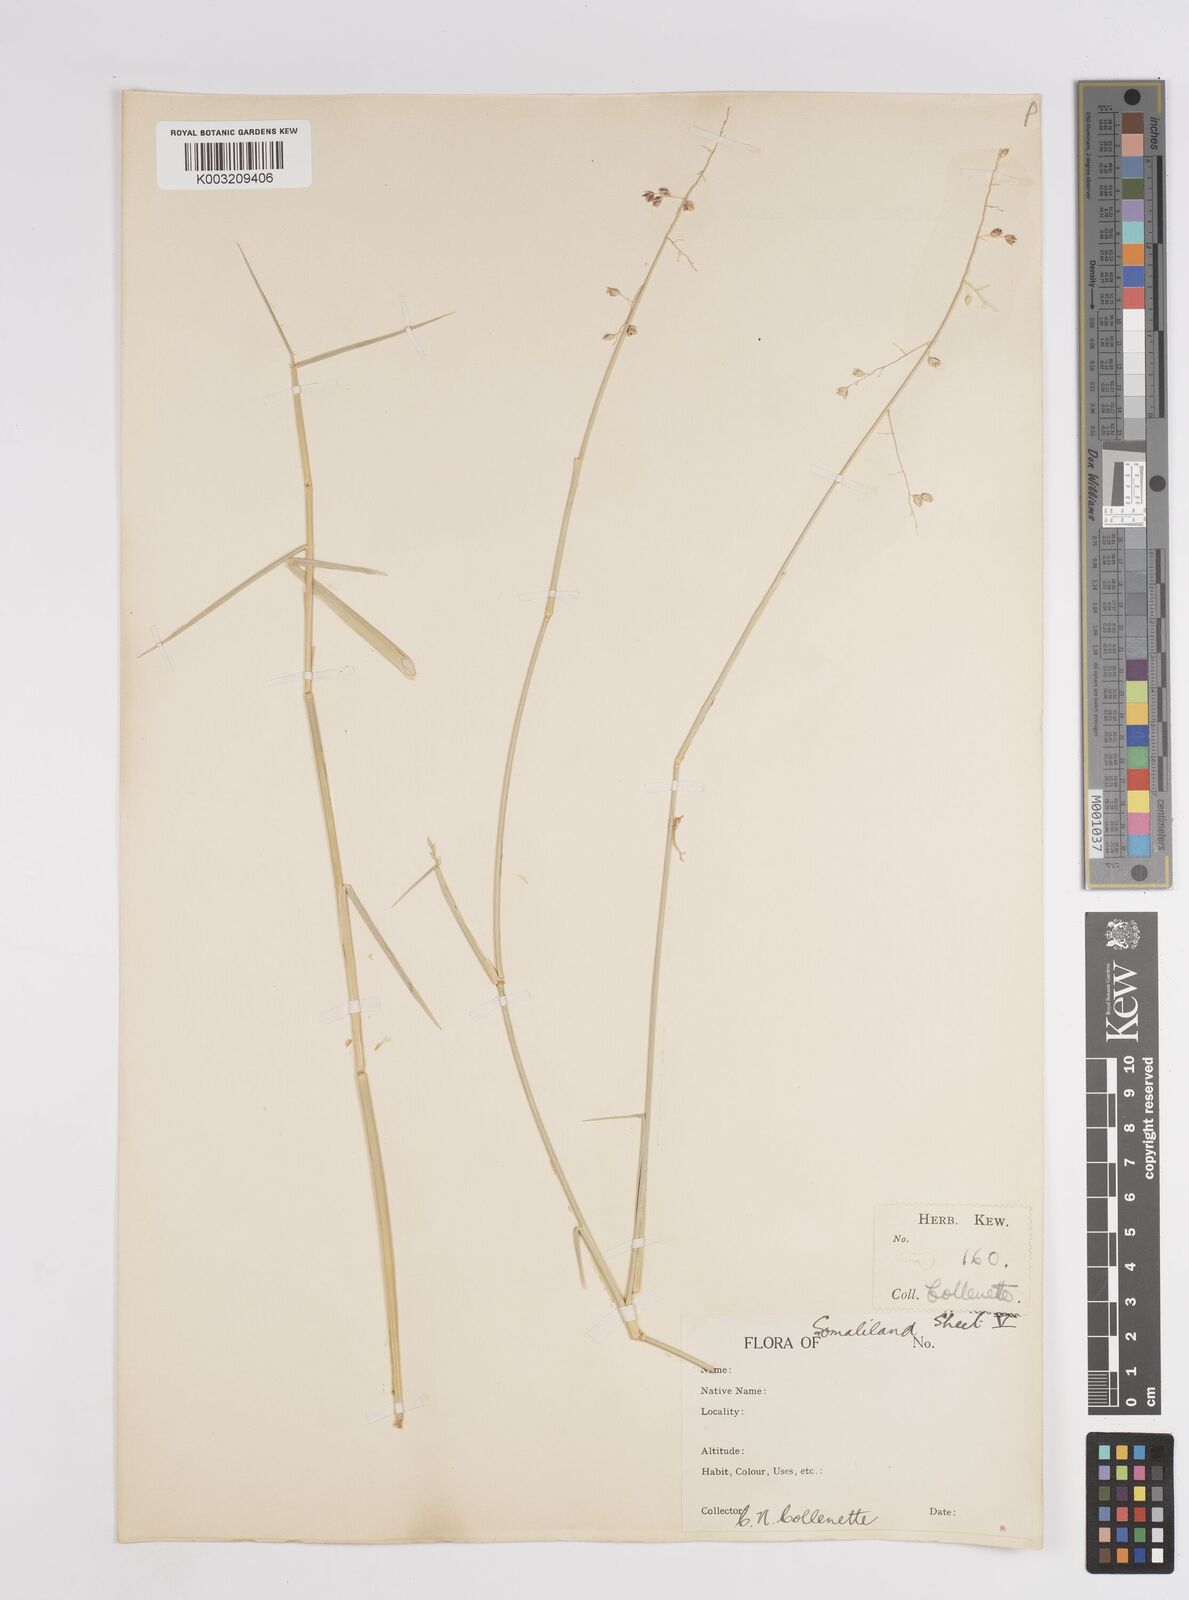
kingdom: Plantae
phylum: Tracheophyta
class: Liliopsida
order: Poales
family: Poaceae
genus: Panicum
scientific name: Panicum turgidum
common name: Desert grass
